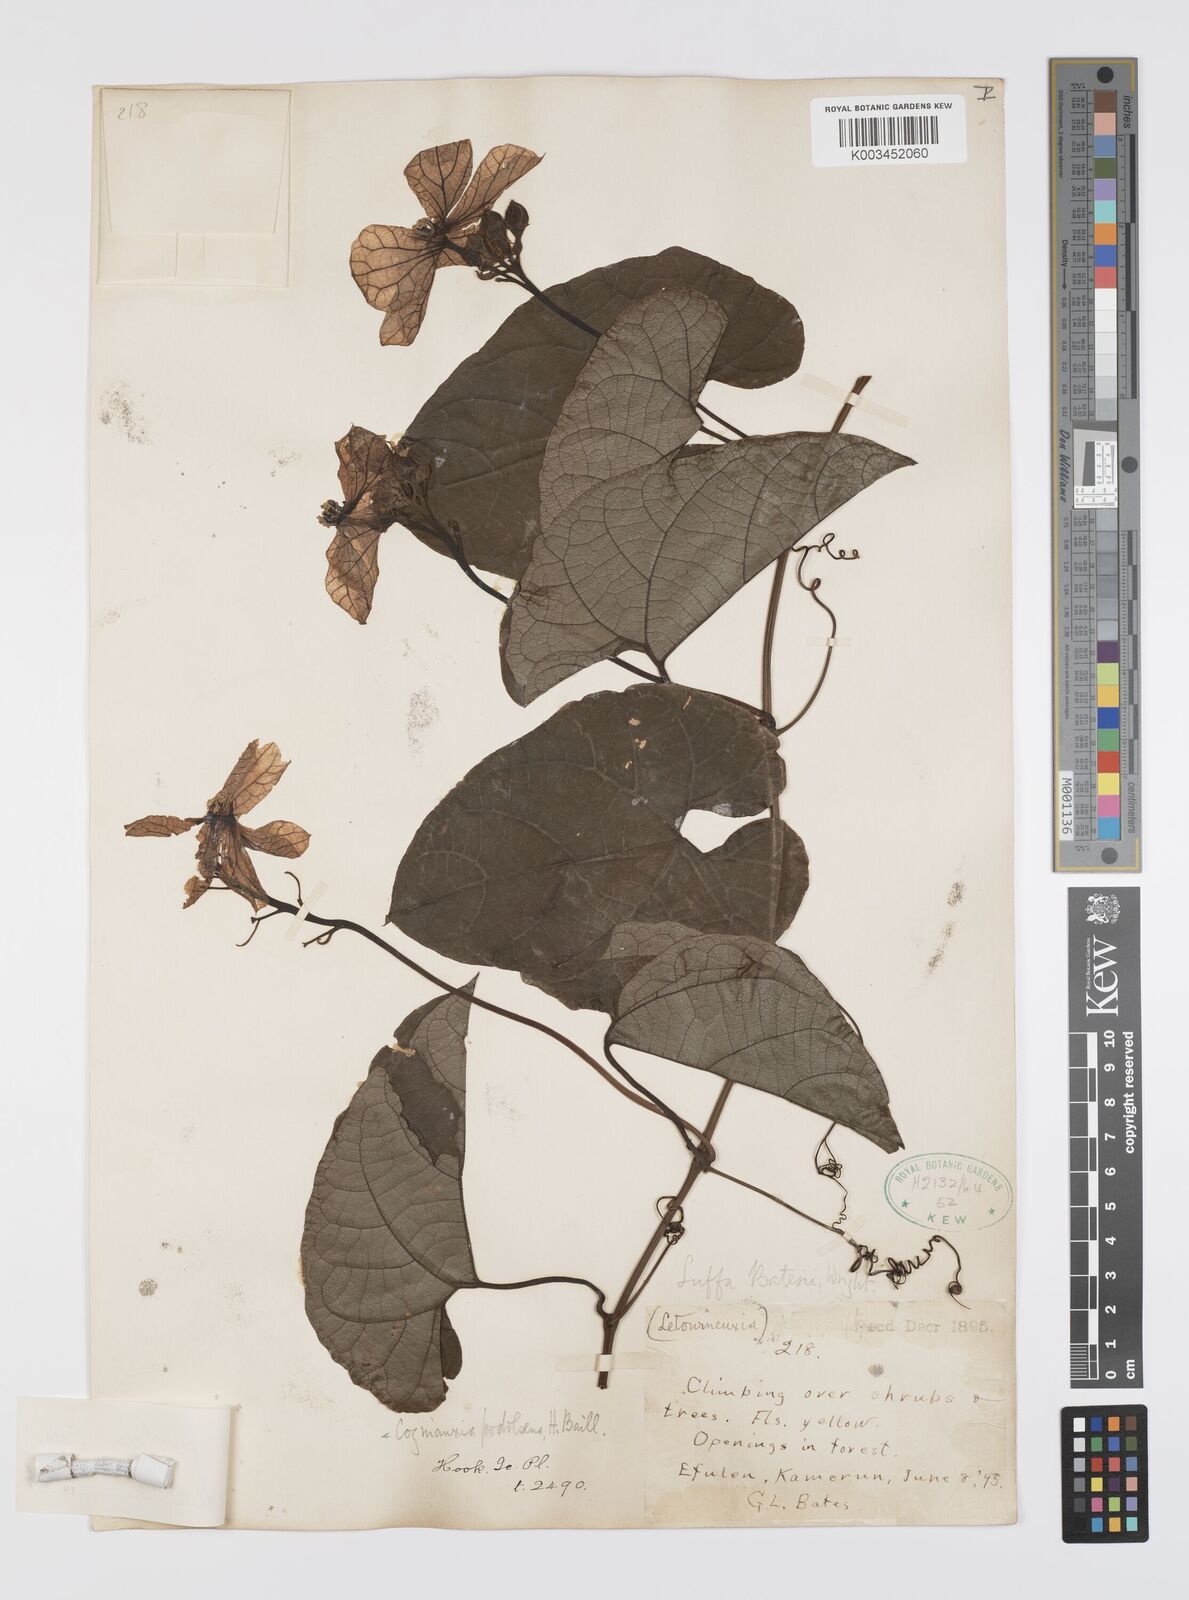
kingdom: Plantae
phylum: Tracheophyta
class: Magnoliopsida
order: Cucurbitales
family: Cucurbitaceae
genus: Cogniauxia
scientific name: Cogniauxia podolaena
